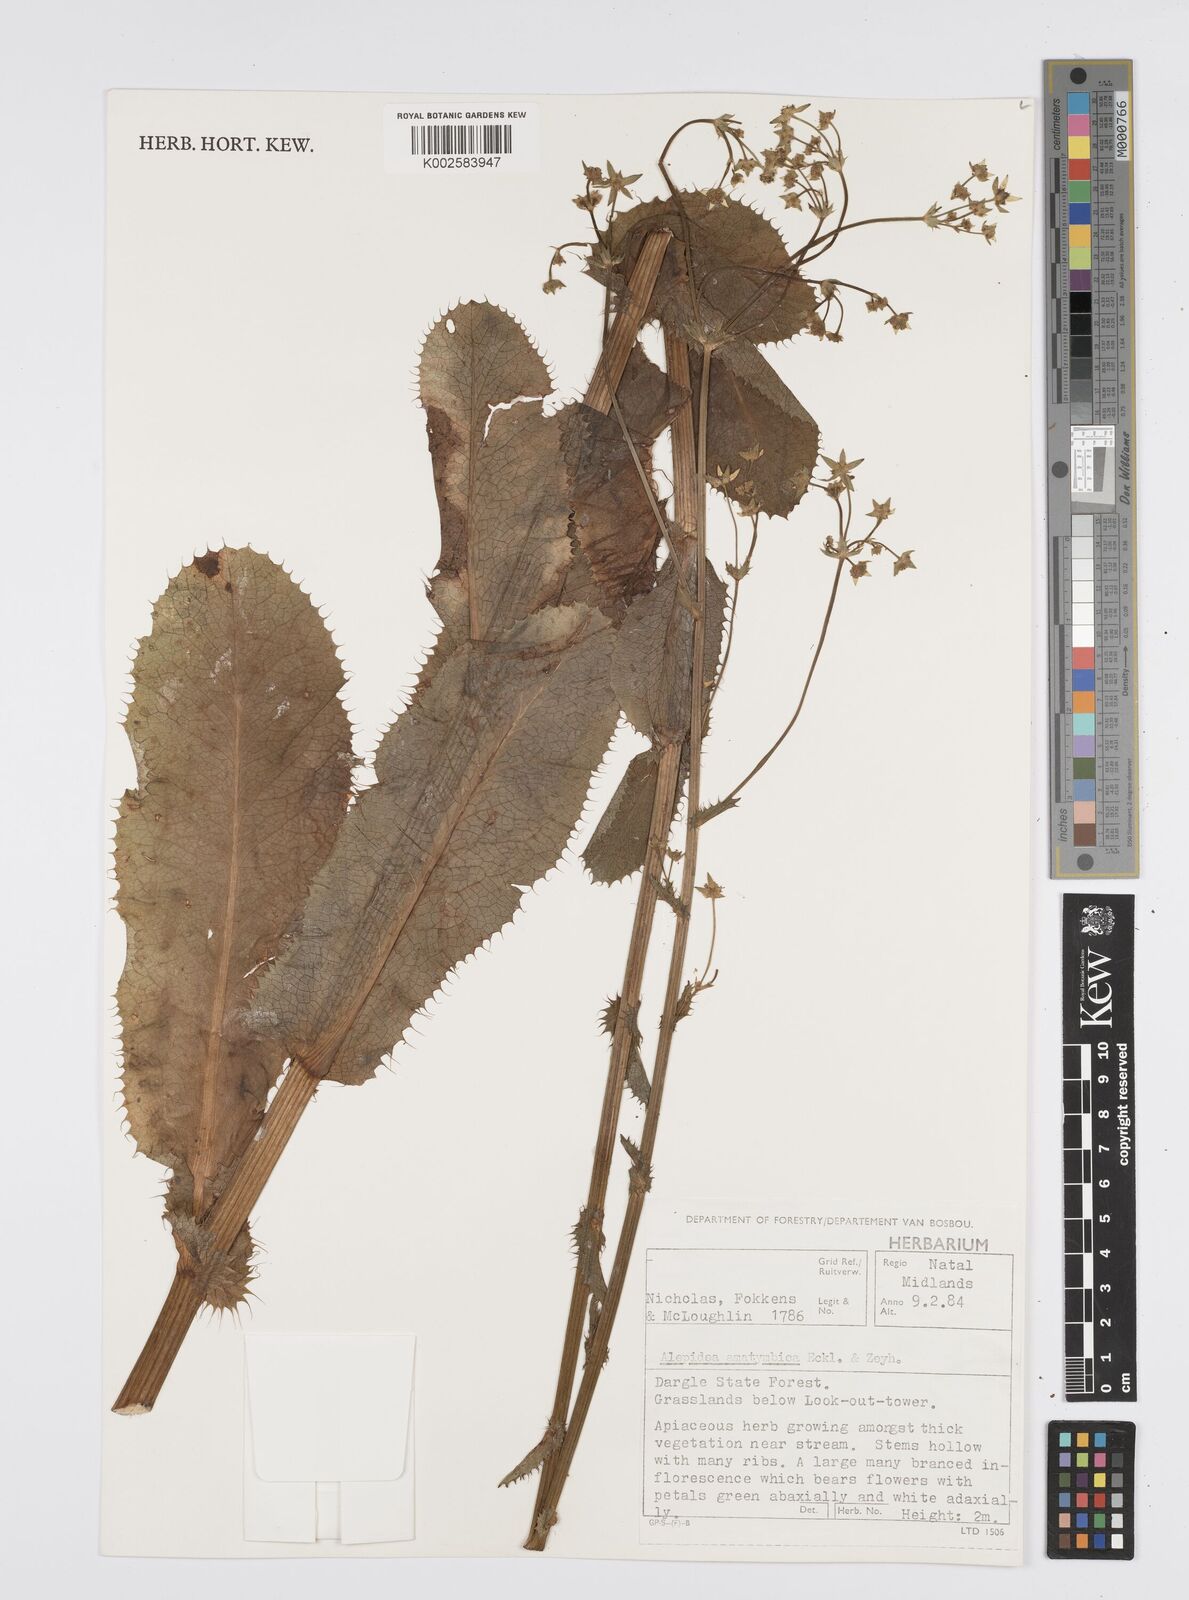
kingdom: Plantae
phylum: Tracheophyta
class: Magnoliopsida
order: Apiales
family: Apiaceae
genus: Alepidea
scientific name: Alepidea amatymbica
